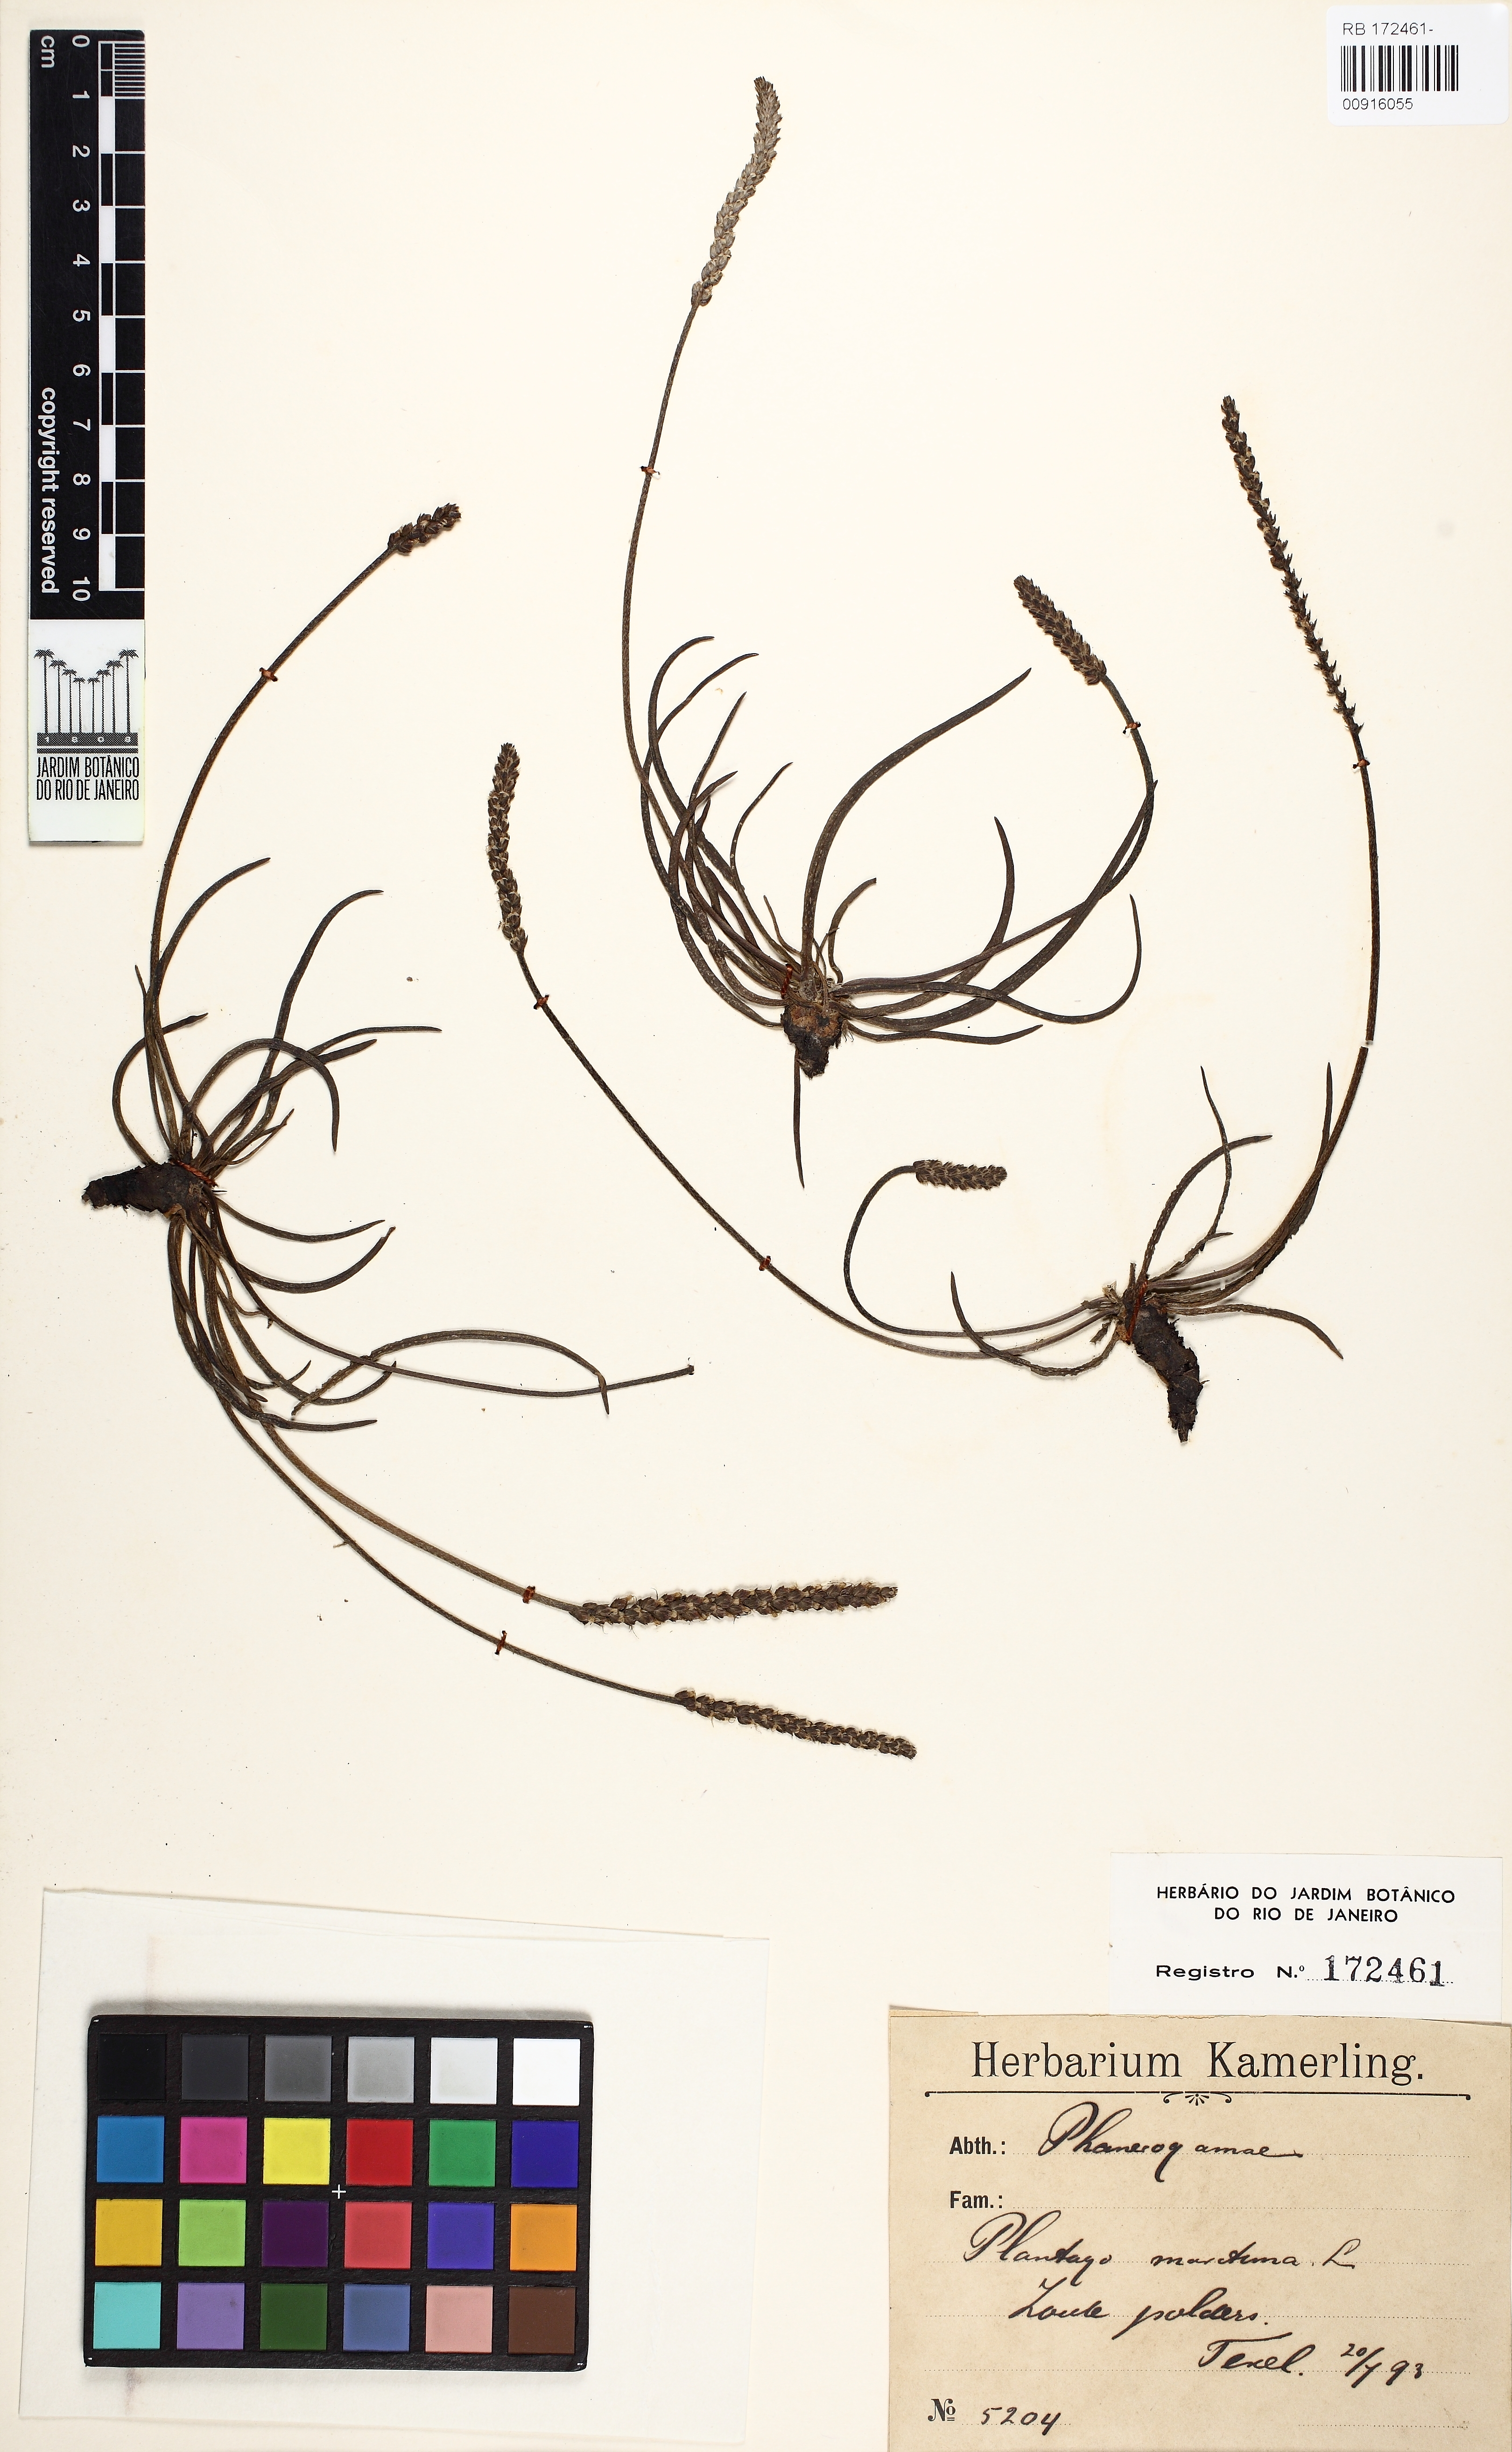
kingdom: Plantae
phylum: Tracheophyta
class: Magnoliopsida
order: Lamiales
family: Plantaginaceae
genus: Plantago
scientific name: Plantago maritima
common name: Sea plantain
